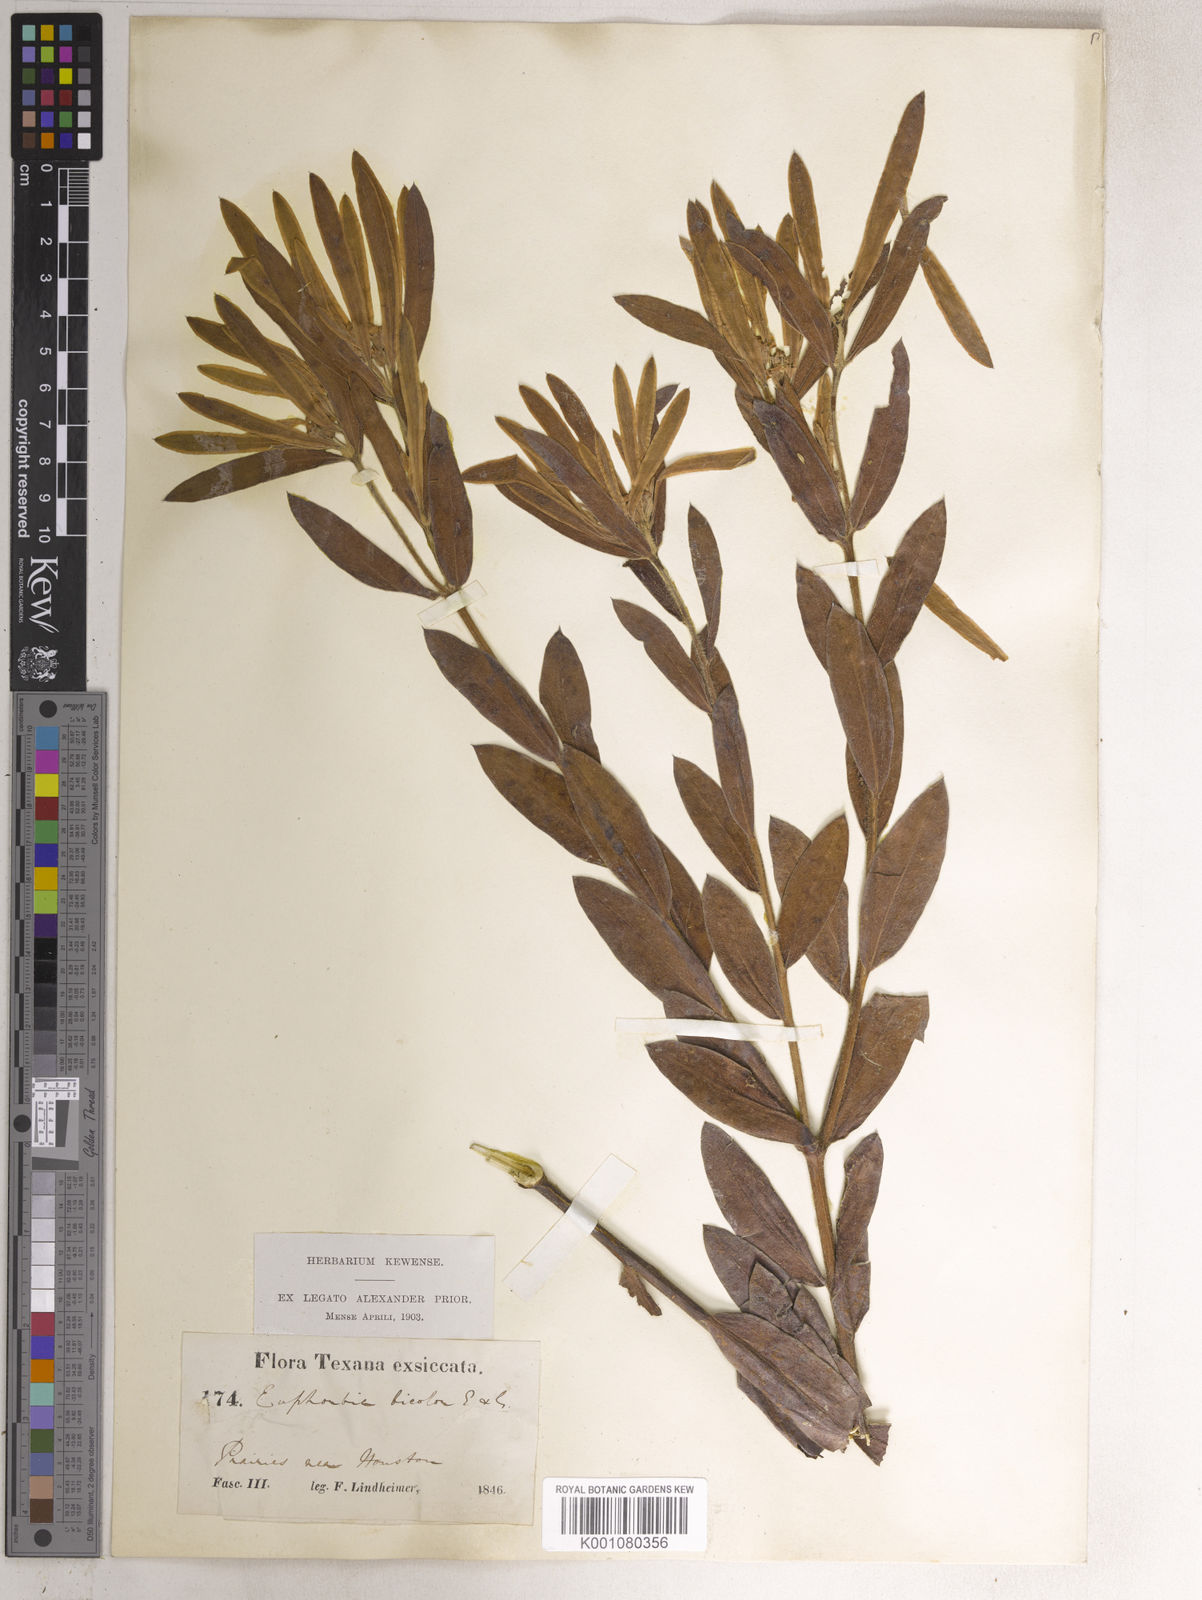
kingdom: Plantae
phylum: Tracheophyta
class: Magnoliopsida
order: Malpighiales
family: Euphorbiaceae
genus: Euphorbia
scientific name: Euphorbia bicolor
